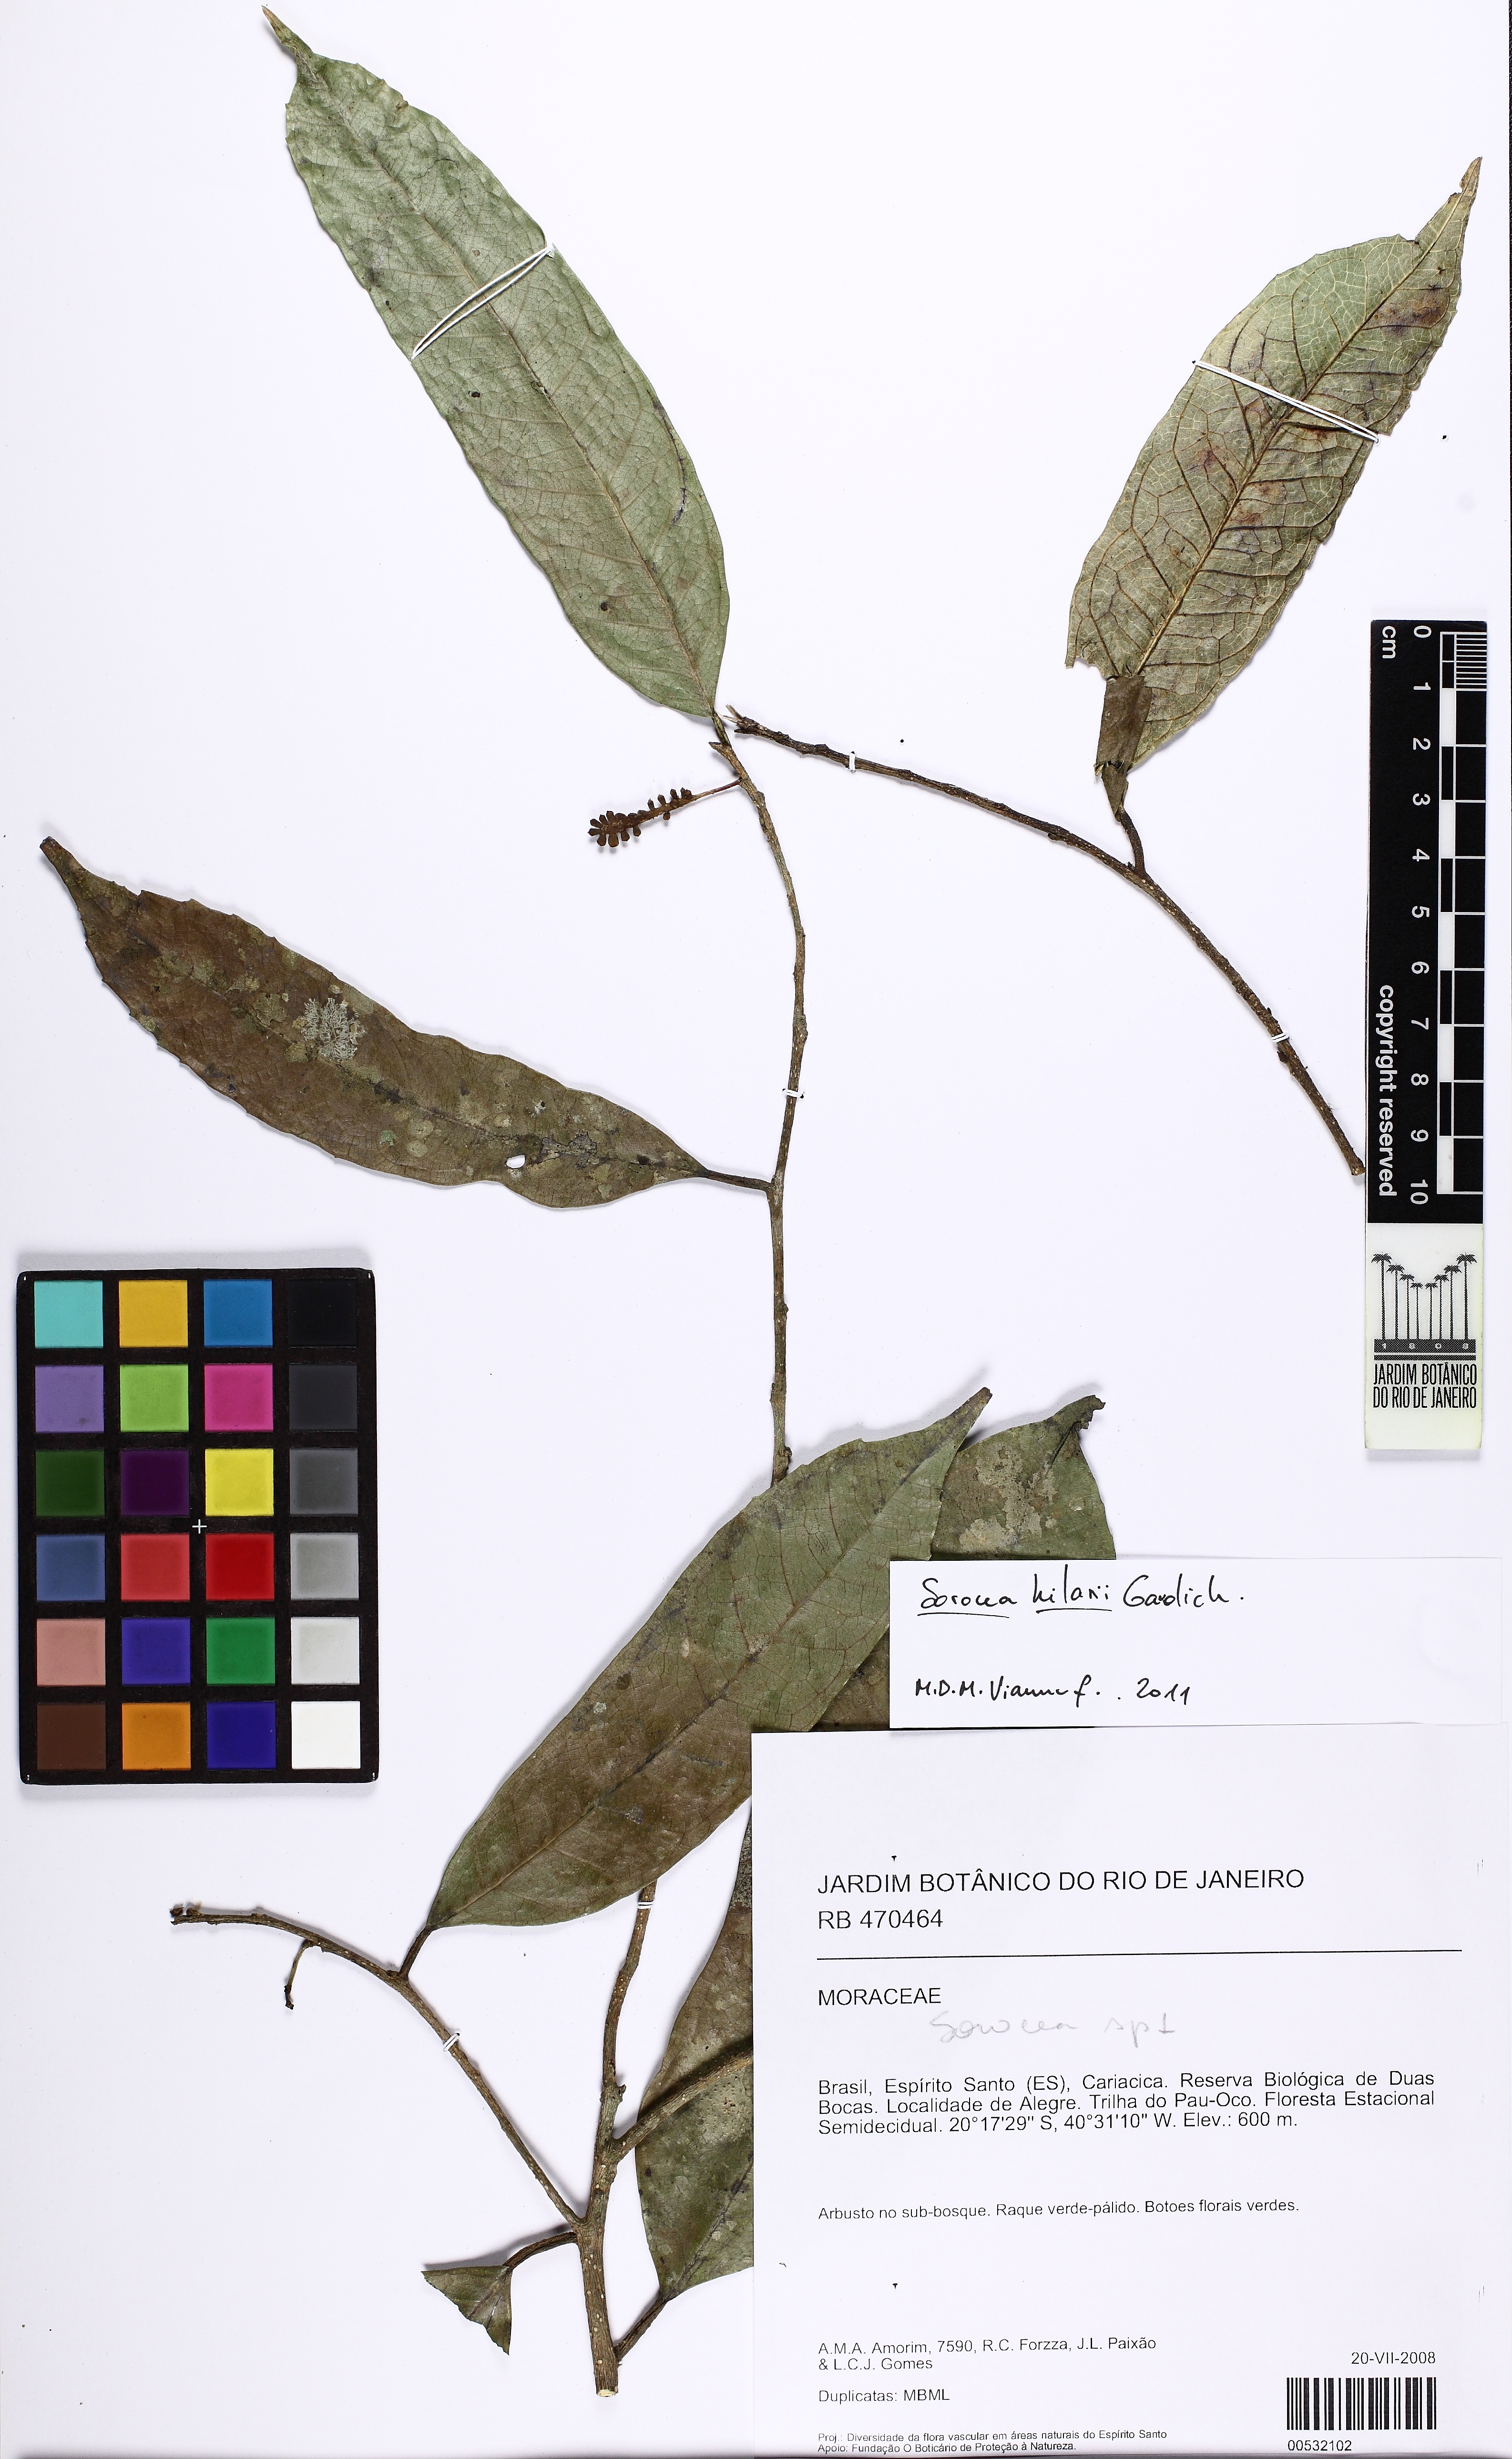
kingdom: Plantae
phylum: Tracheophyta
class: Magnoliopsida
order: Rosales
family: Moraceae
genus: Sorocea
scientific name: Sorocea hilarii
